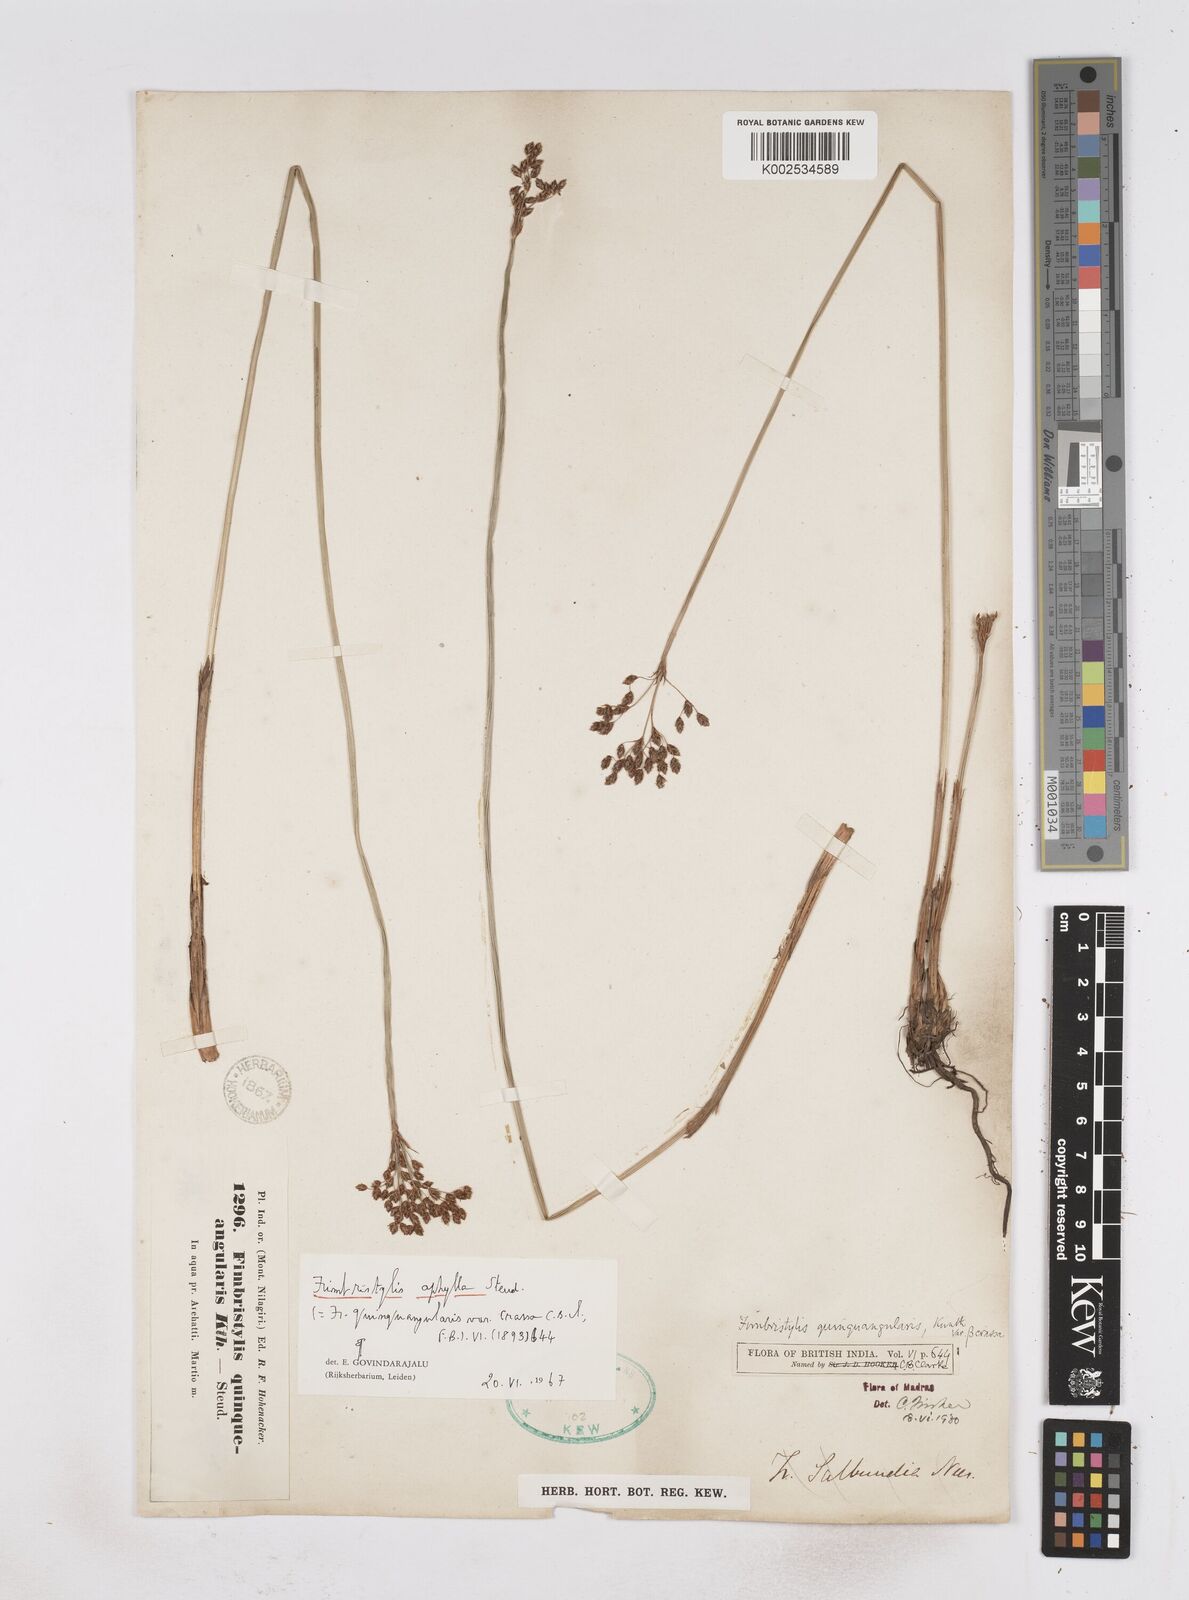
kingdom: Plantae
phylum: Tracheophyta
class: Liliopsida
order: Poales
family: Cyperaceae
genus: Fimbristylis
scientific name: Fimbristylis aphylla
